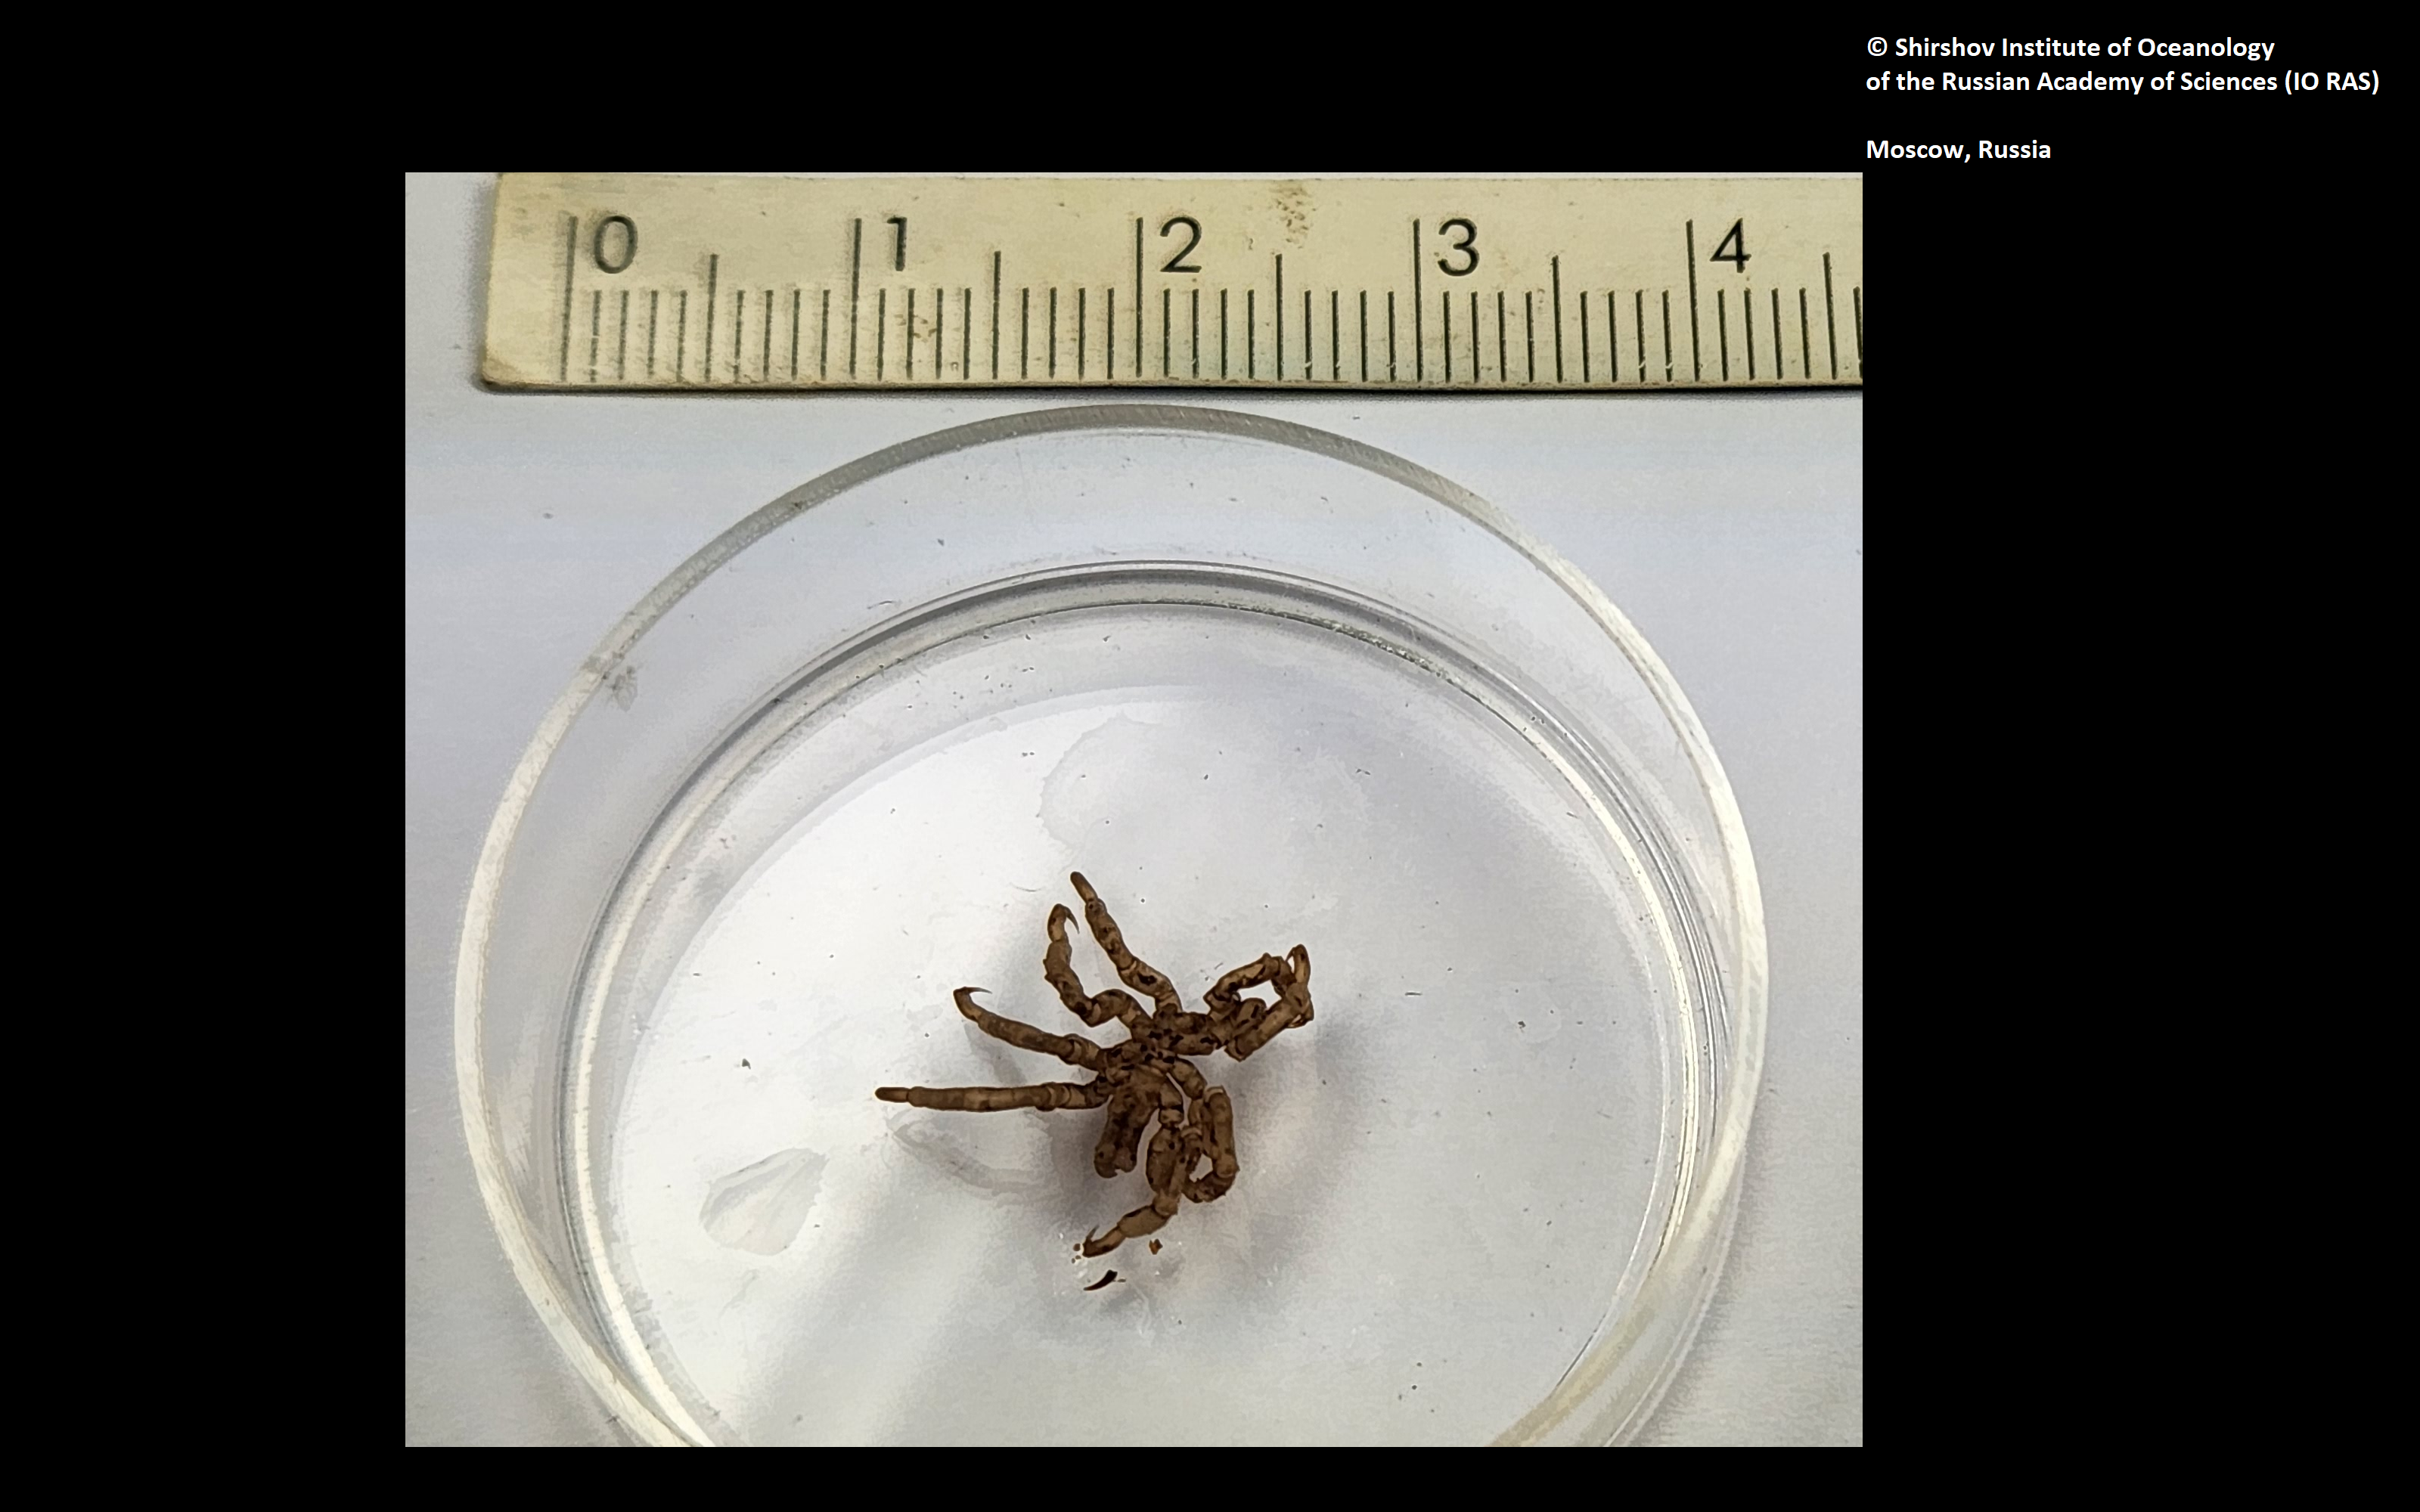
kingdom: Animalia
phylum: Arthropoda
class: Pycnogonida
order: Pantopoda
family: Phoxichilidiidae
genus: Anoplodactylus
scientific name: Anoplodactylus viriosus
